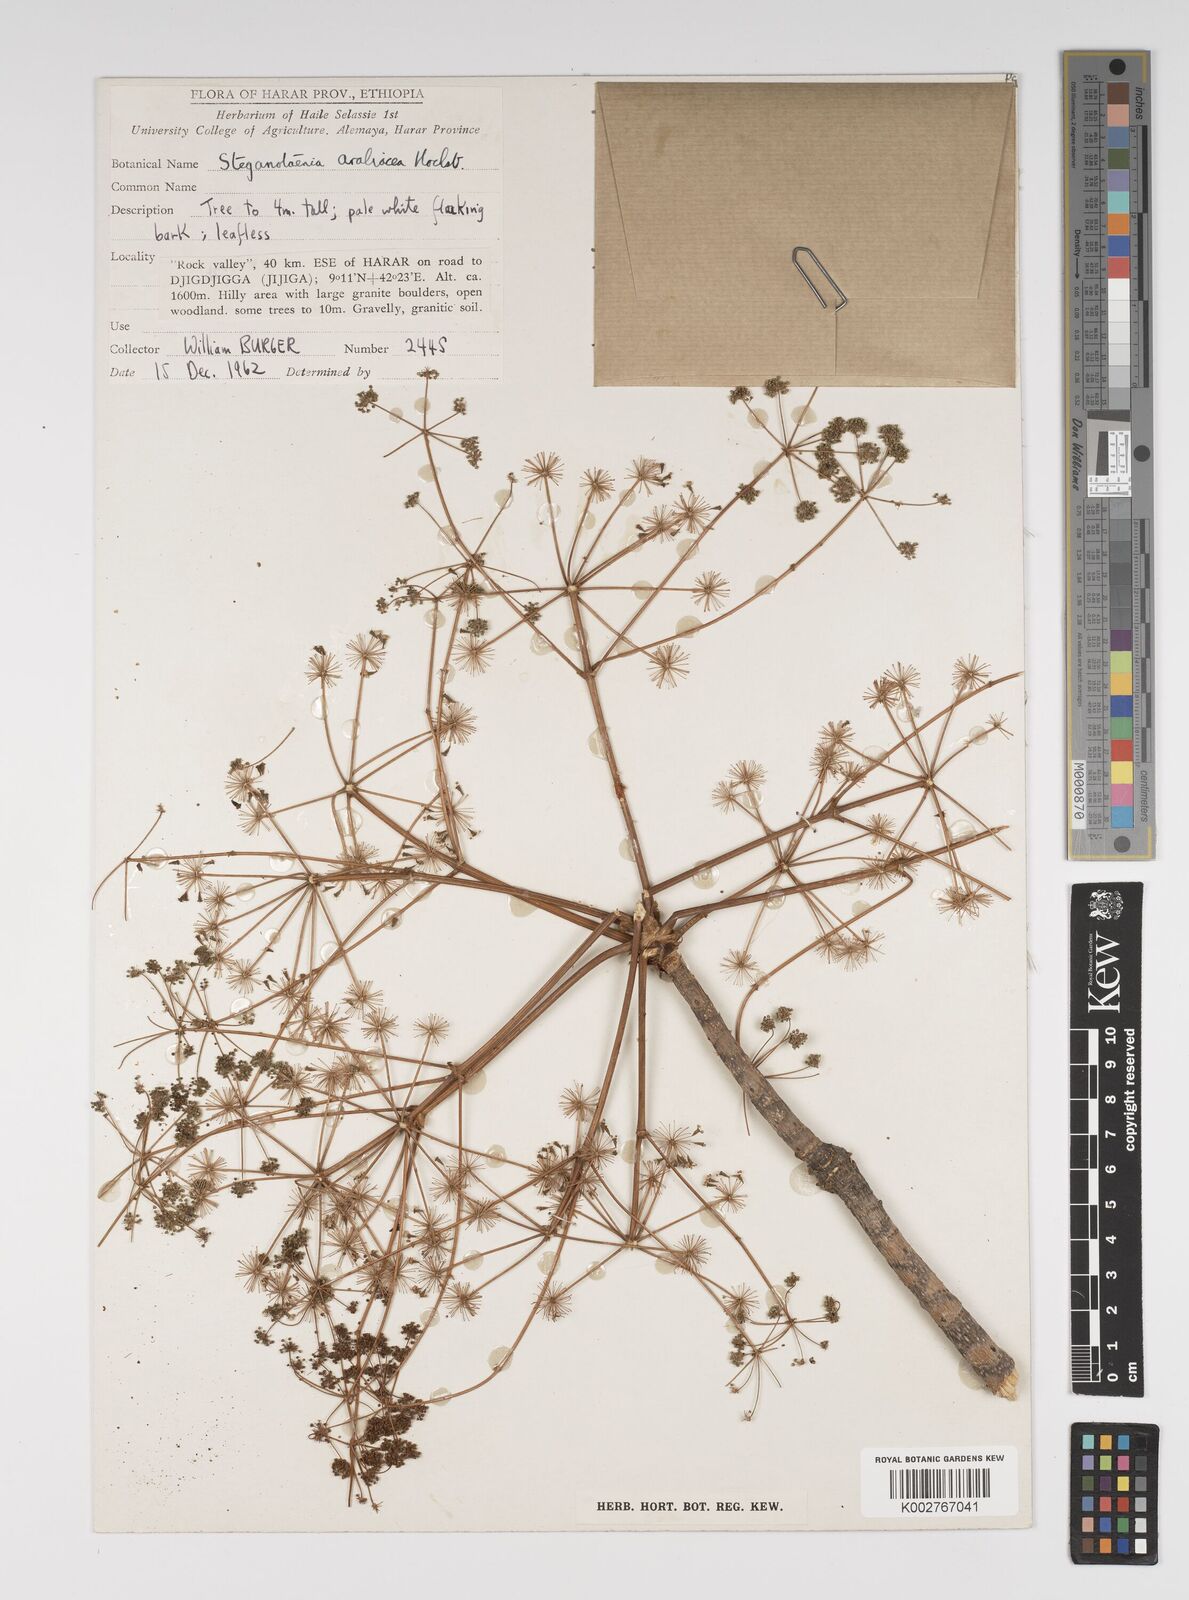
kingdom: Plantae
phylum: Tracheophyta
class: Magnoliopsida
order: Apiales
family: Apiaceae
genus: Steganotaenia
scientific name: Steganotaenia araliacea
